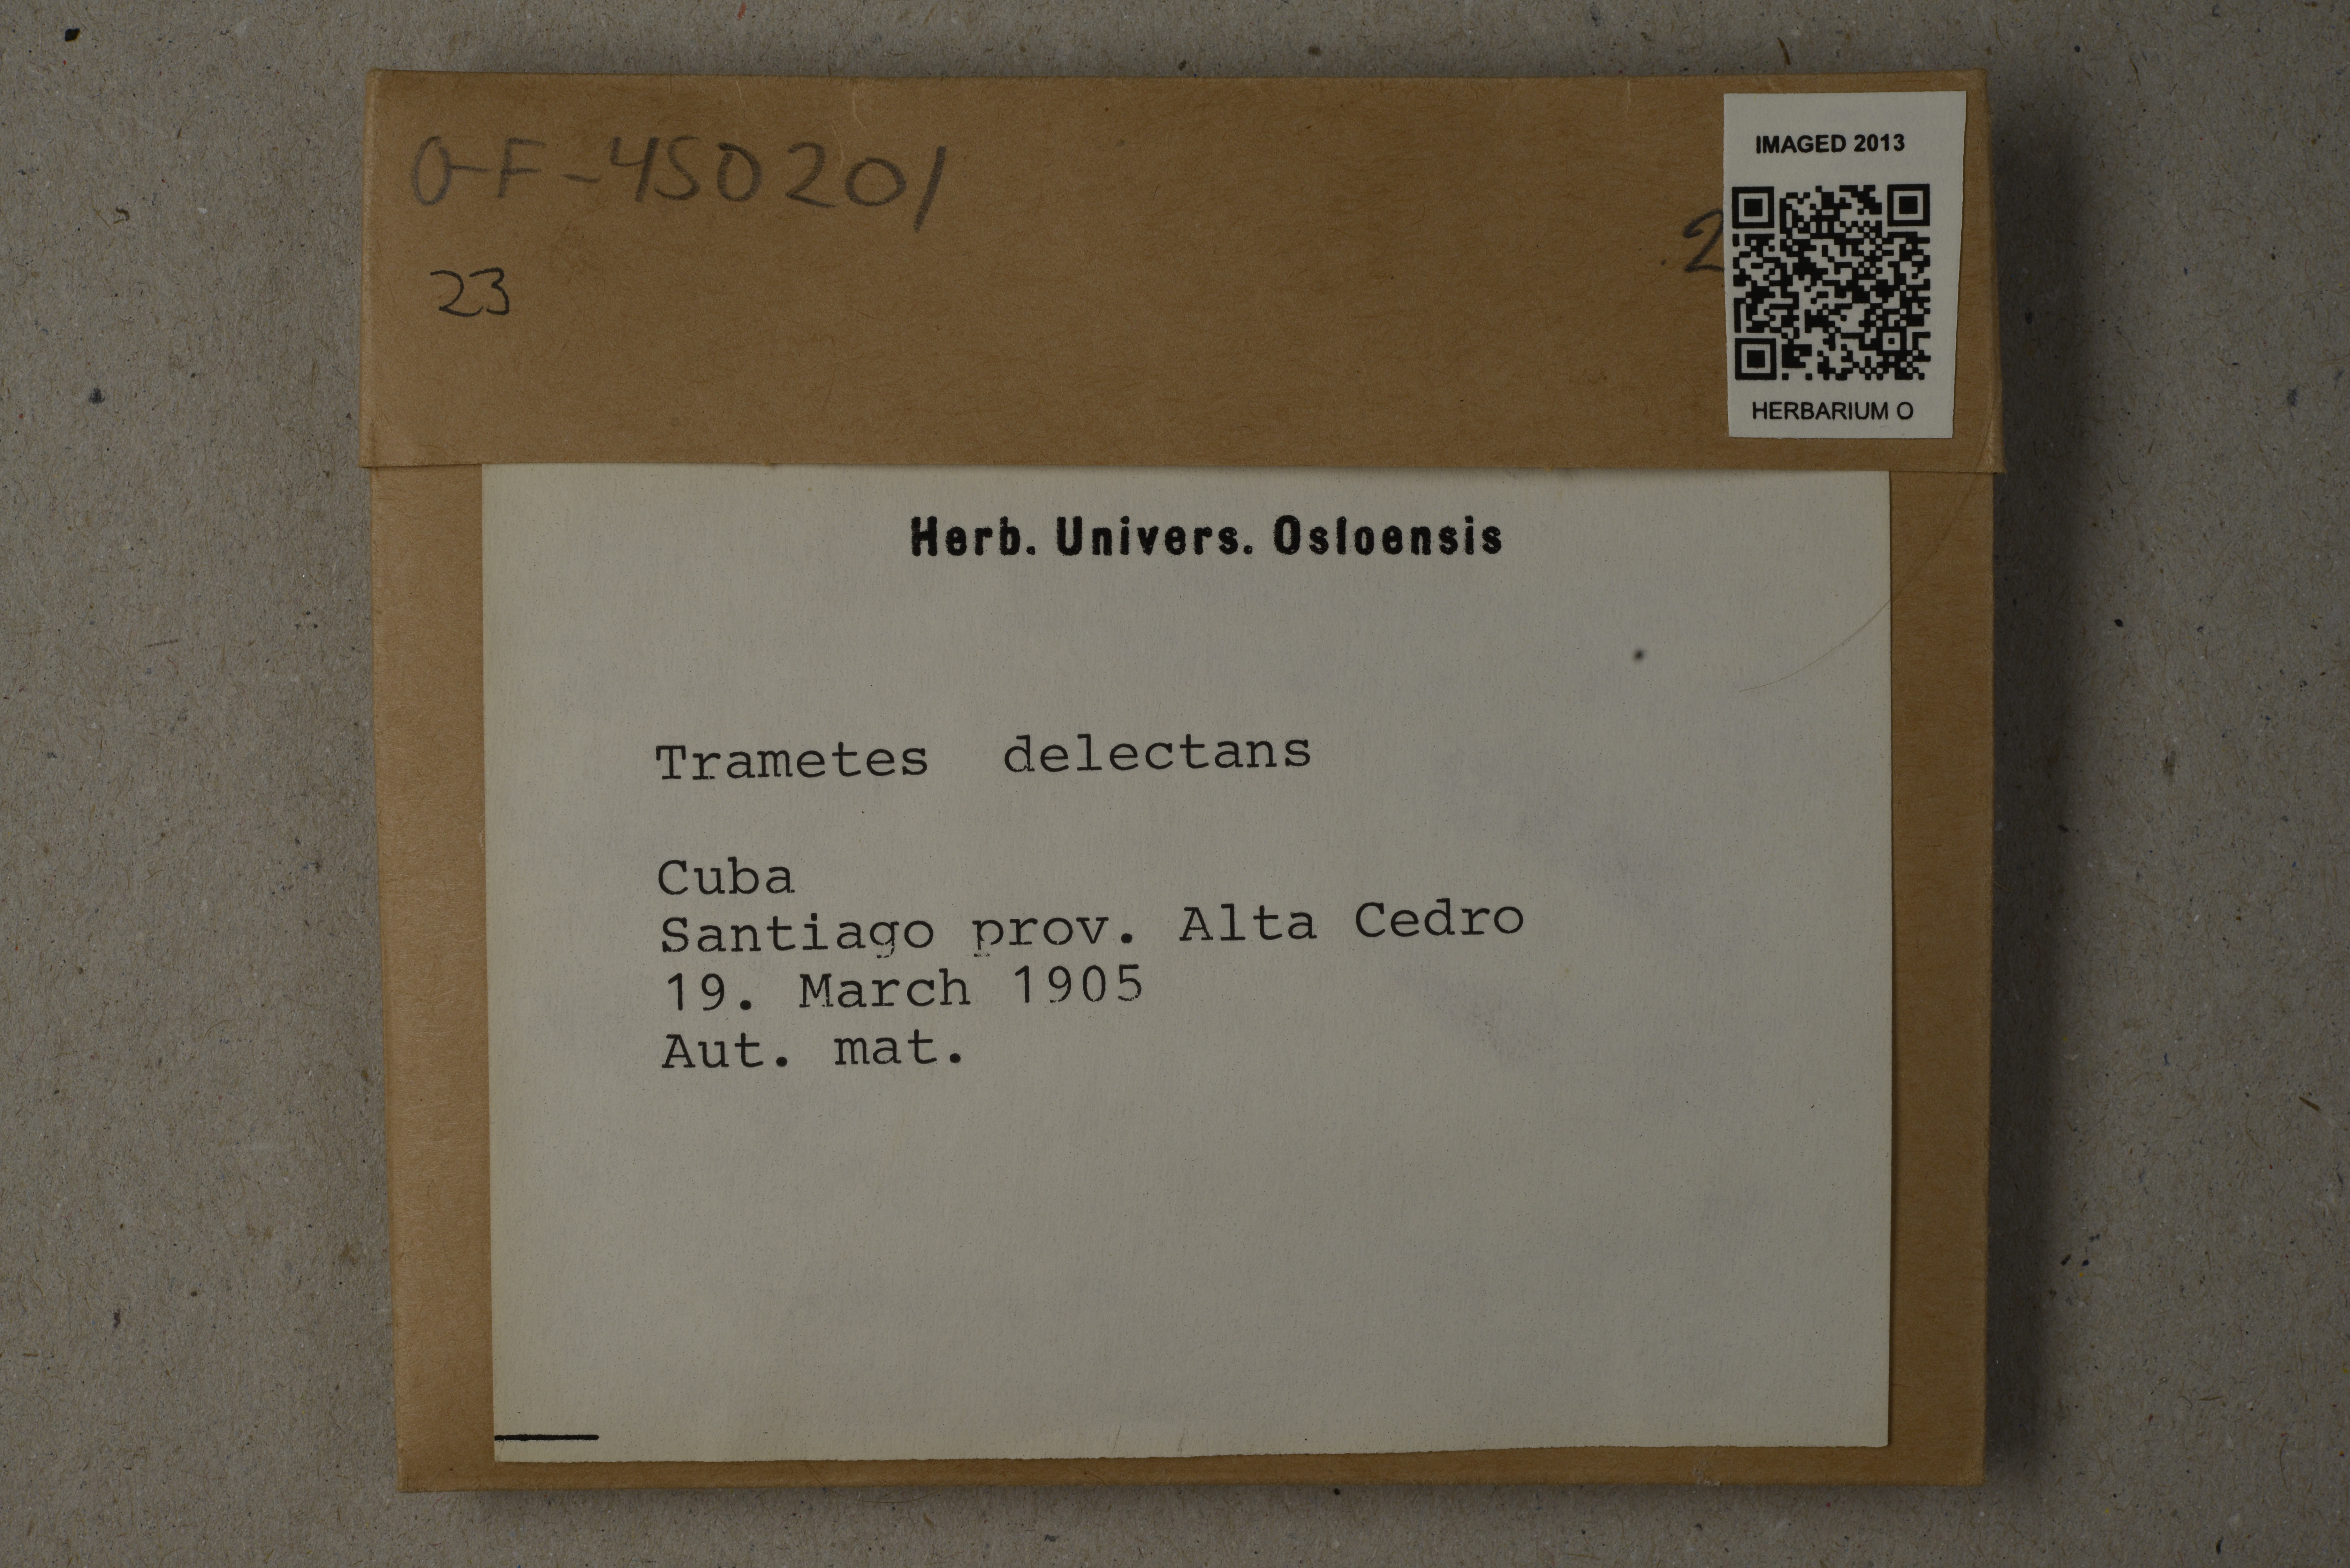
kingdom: Fungi
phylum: Basidiomycota
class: Agaricomycetes
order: Hymenochaetales
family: Hymenochaetaceae
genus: Phellinus
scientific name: Phellinus gilvus
